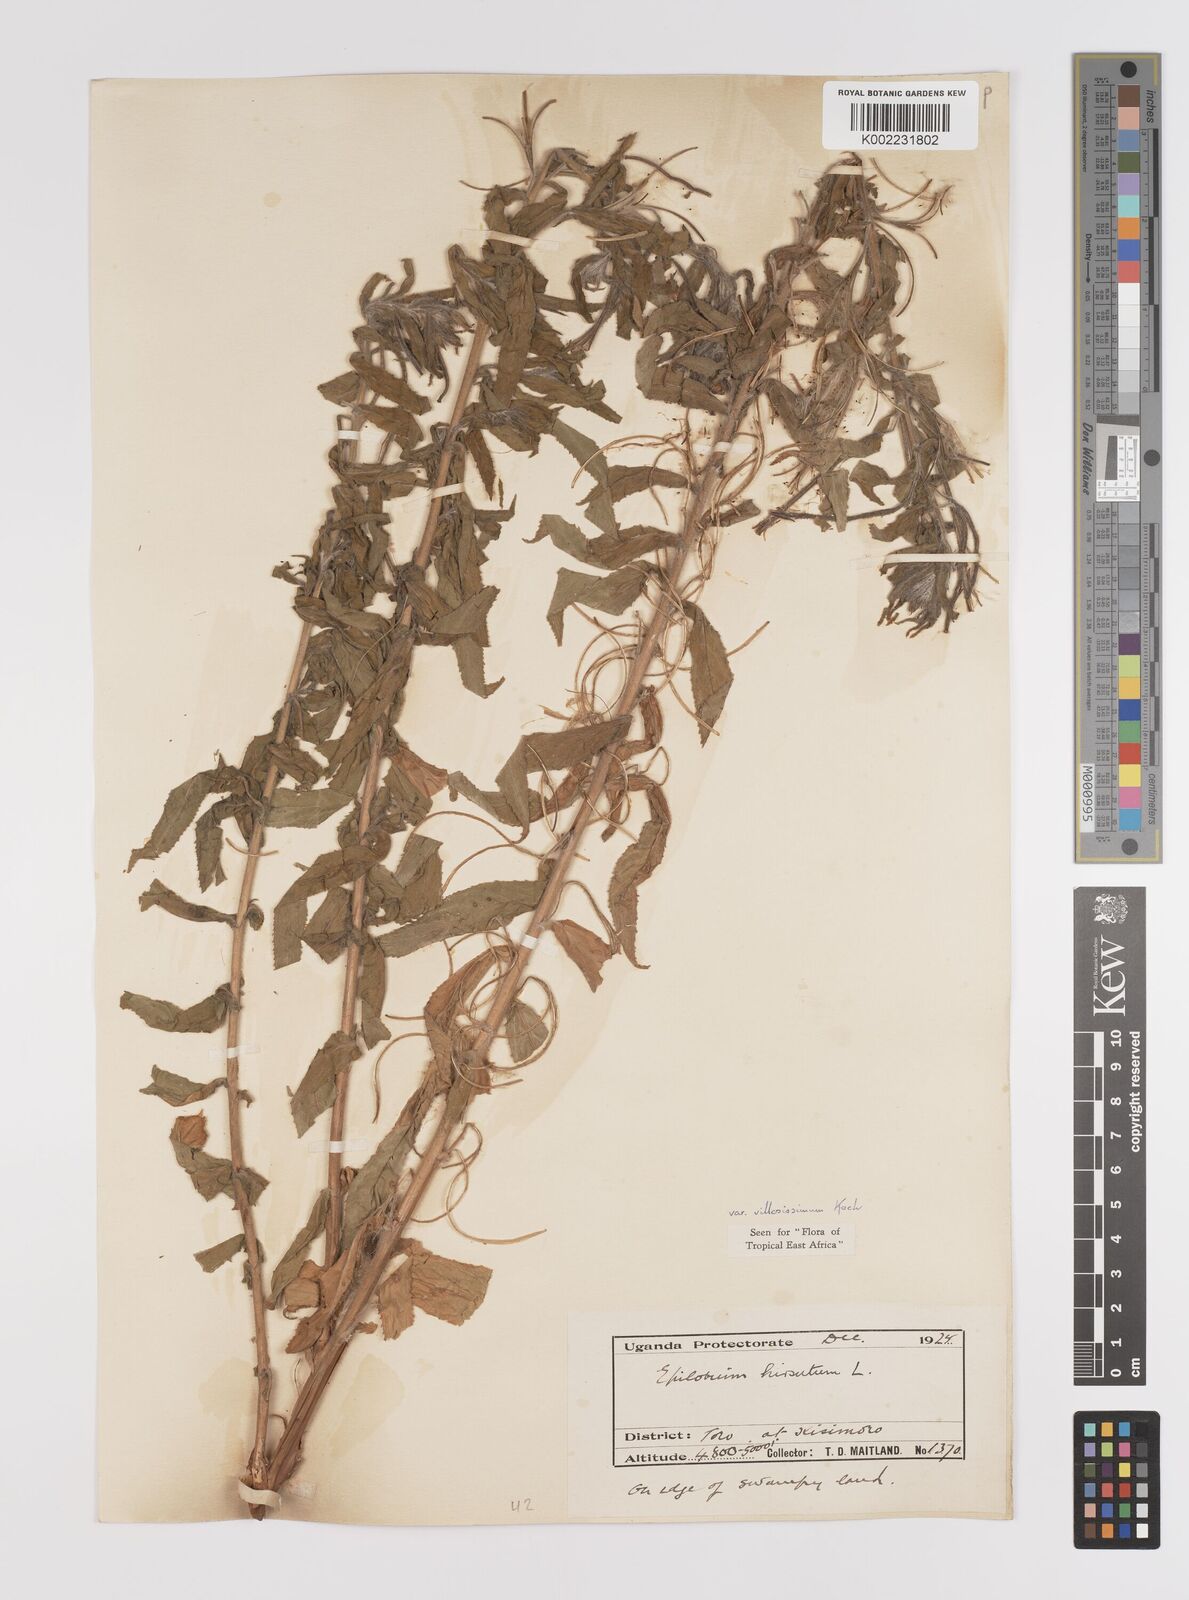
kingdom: Plantae
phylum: Tracheophyta
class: Magnoliopsida
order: Myrtales
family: Onagraceae
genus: Epilobium
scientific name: Epilobium hirsutum
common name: Great willowherb
